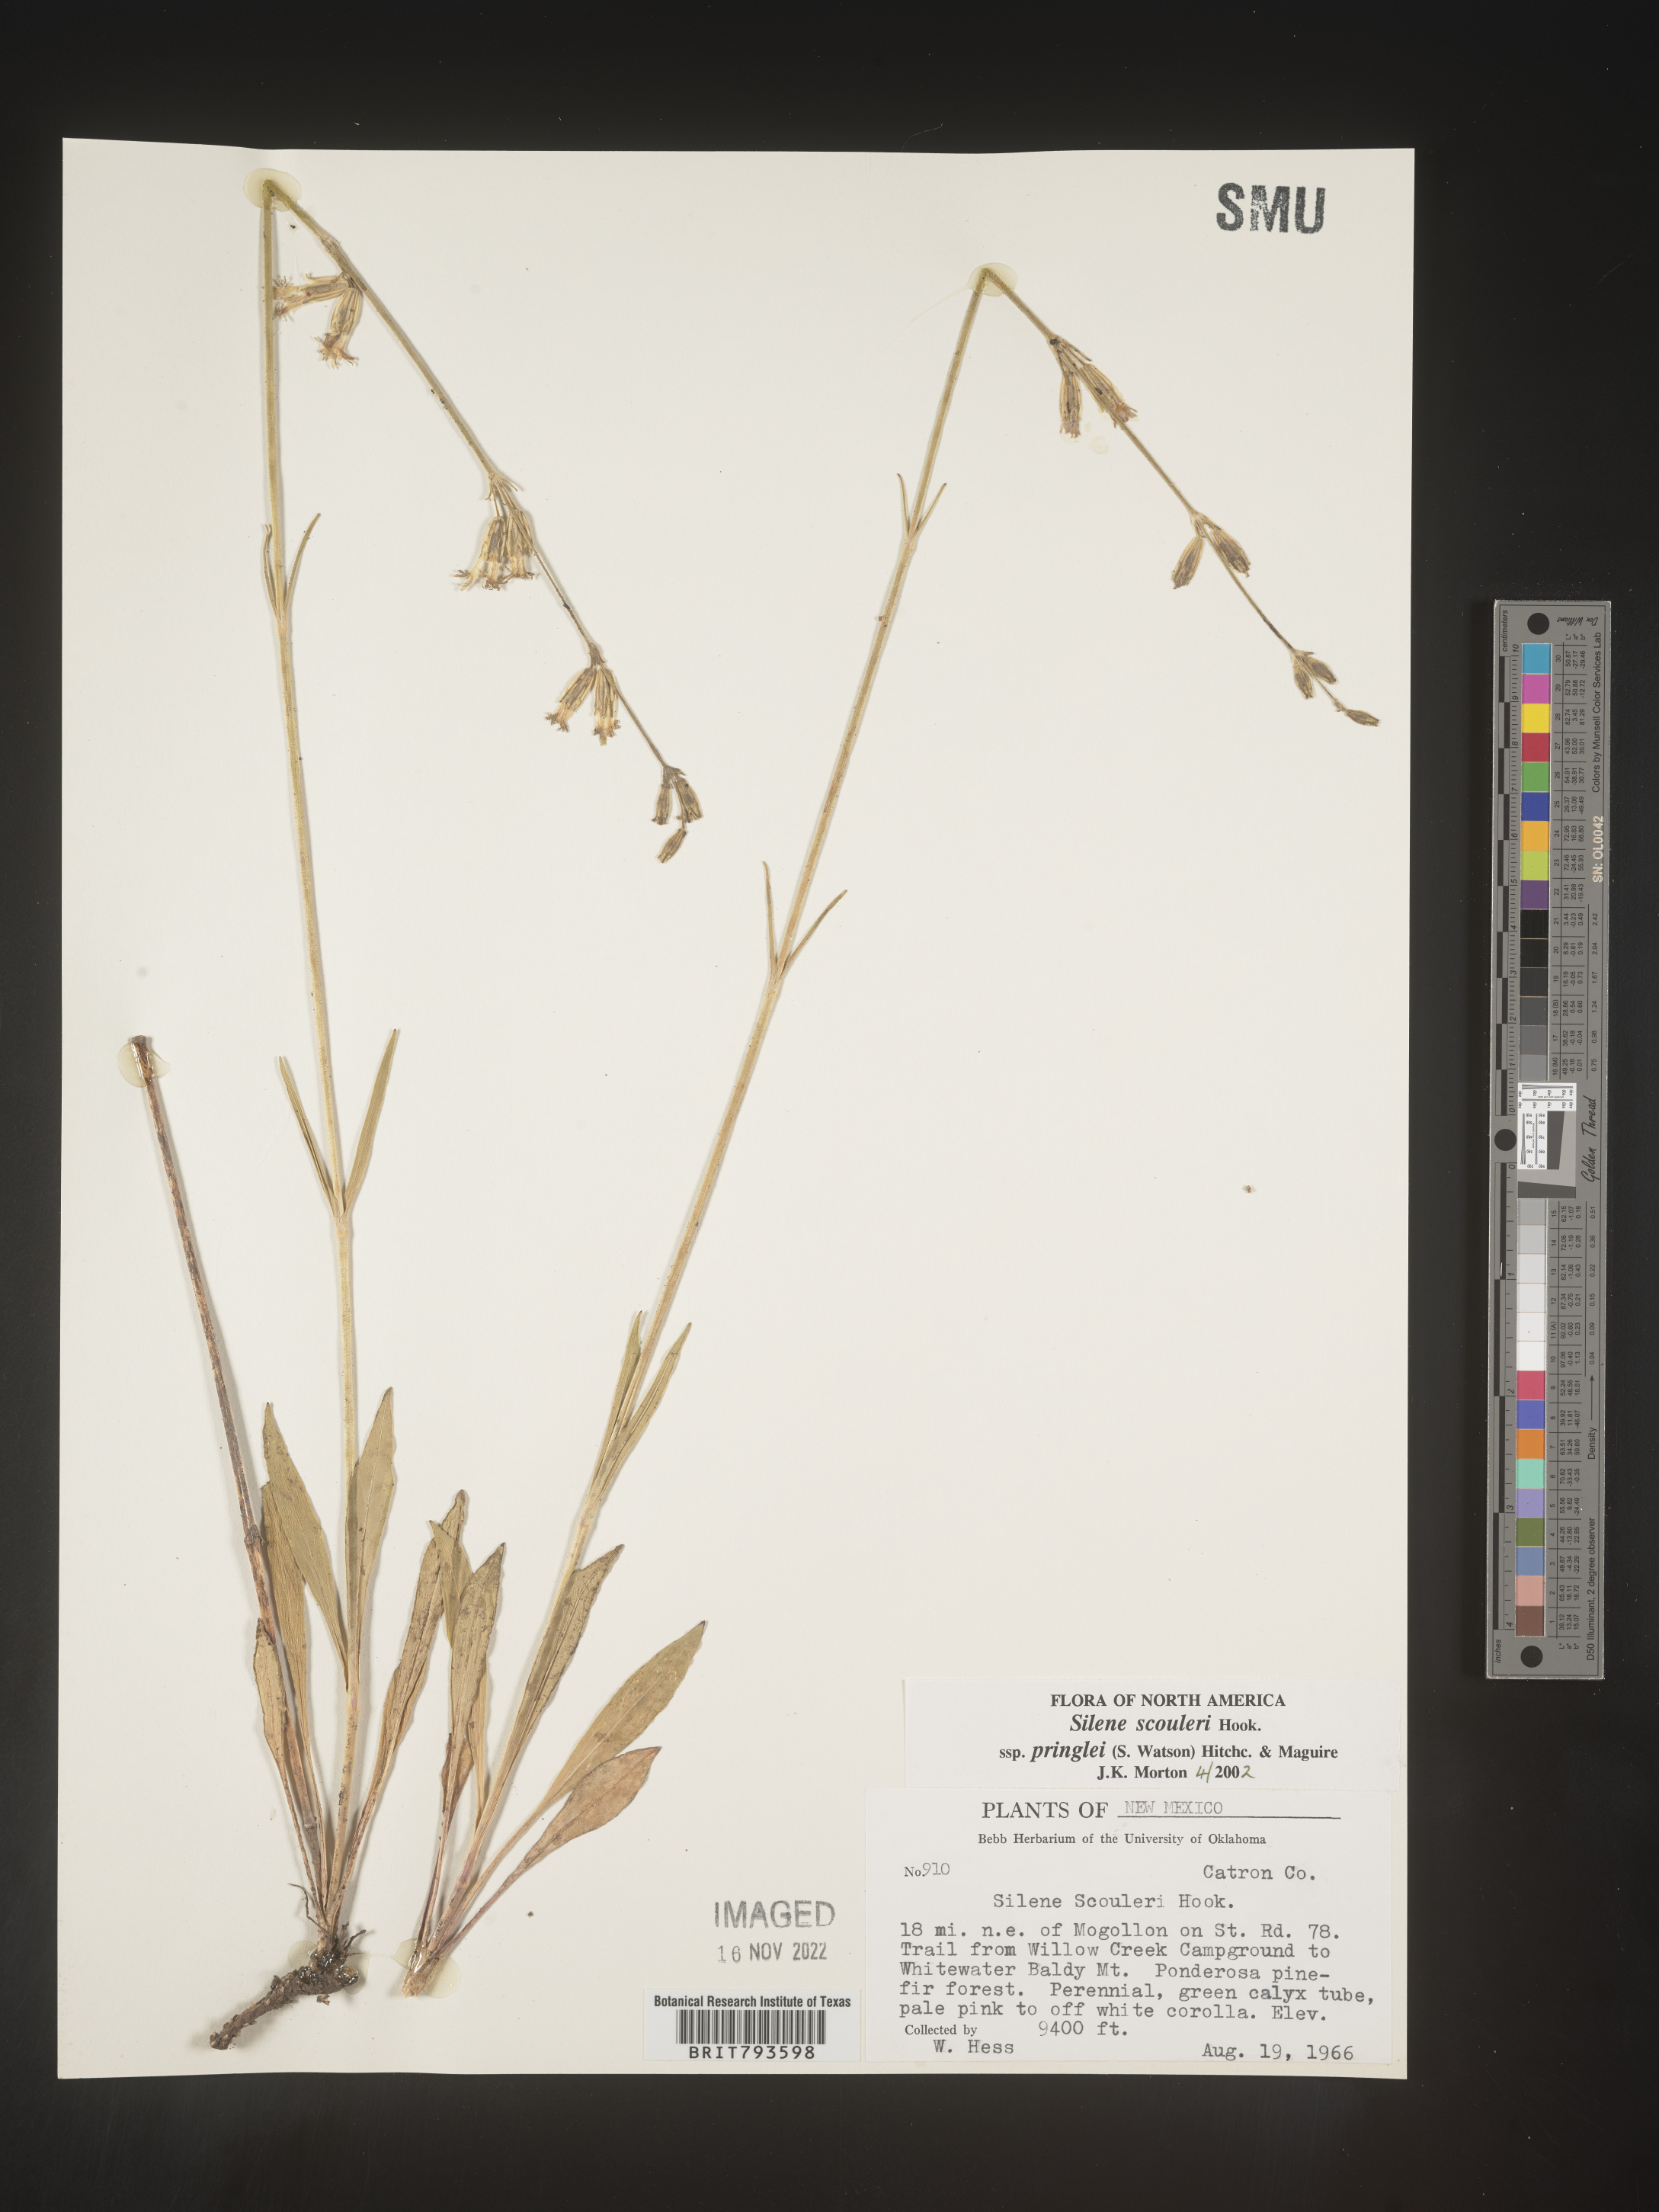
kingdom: Plantae
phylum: Tracheophyta
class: Magnoliopsida
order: Caryophyllales
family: Caryophyllaceae
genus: Silene
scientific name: Silene scouleri
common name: Scouler's campion
